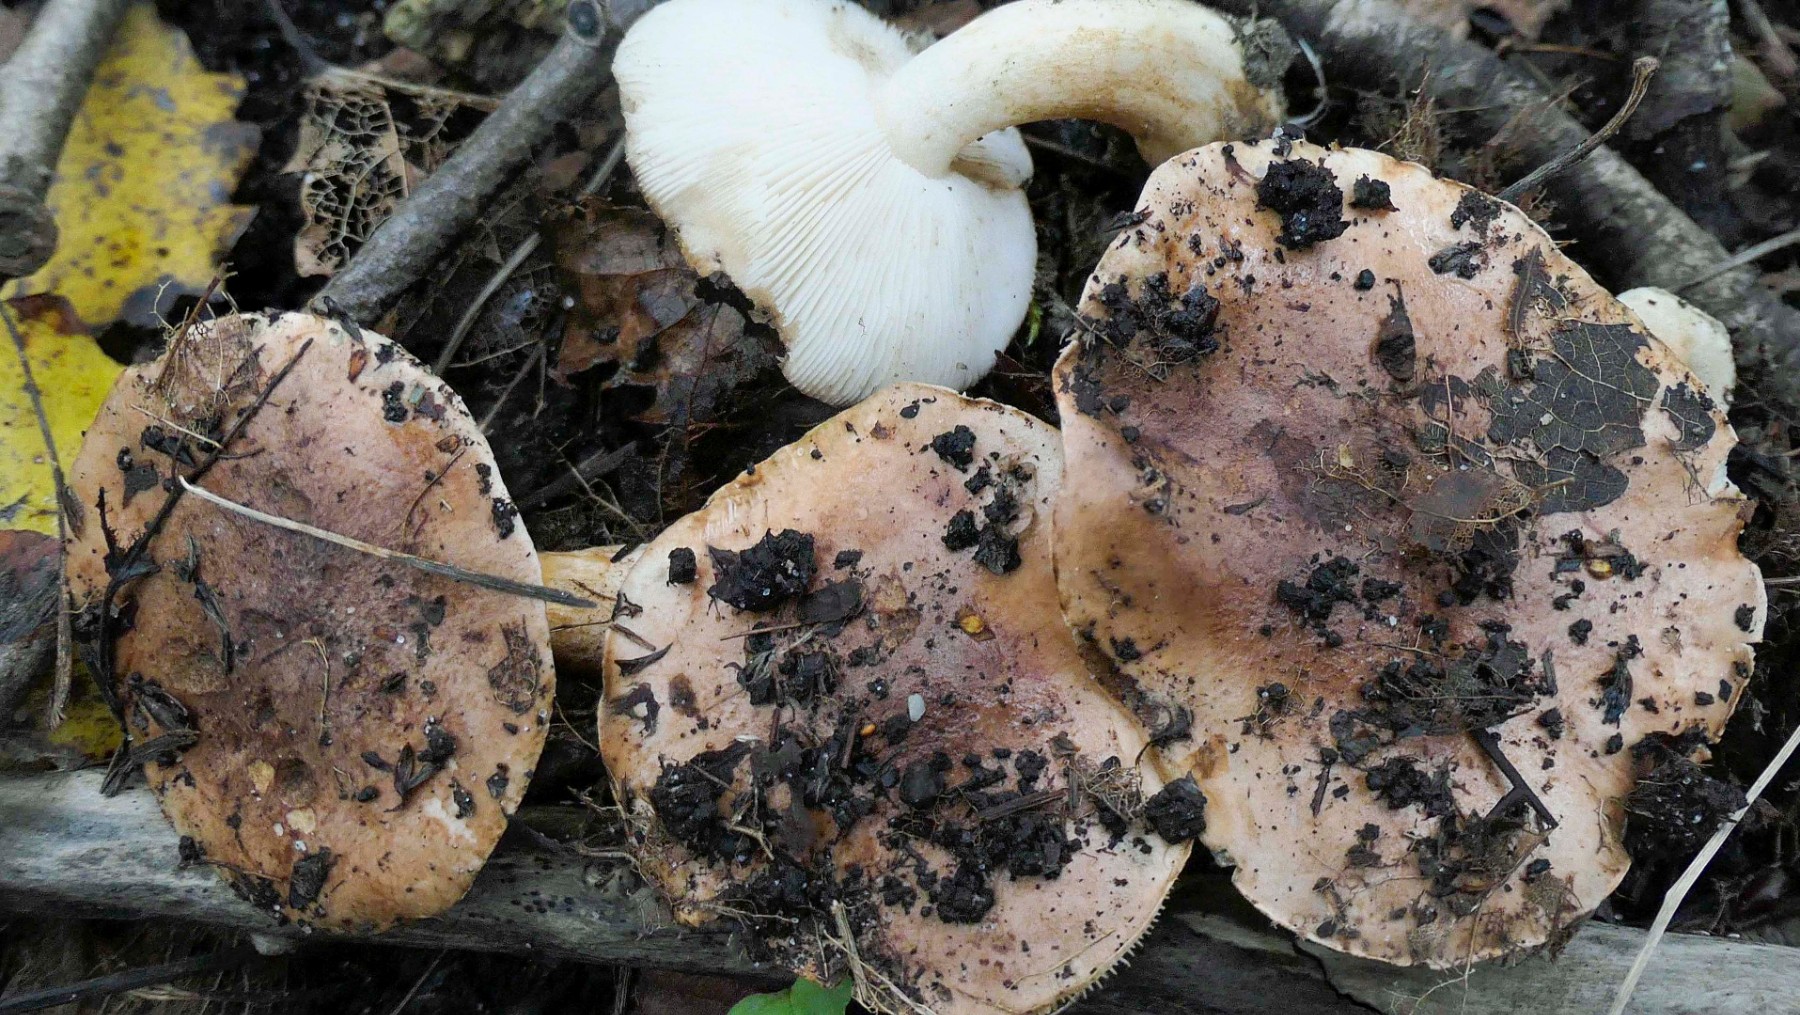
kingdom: Fungi
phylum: Basidiomycota
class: Agaricomycetes
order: Agaricales
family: Tricholomataceae
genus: Tricholoma
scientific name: Tricholoma populinum
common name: poppel-ridderhat
